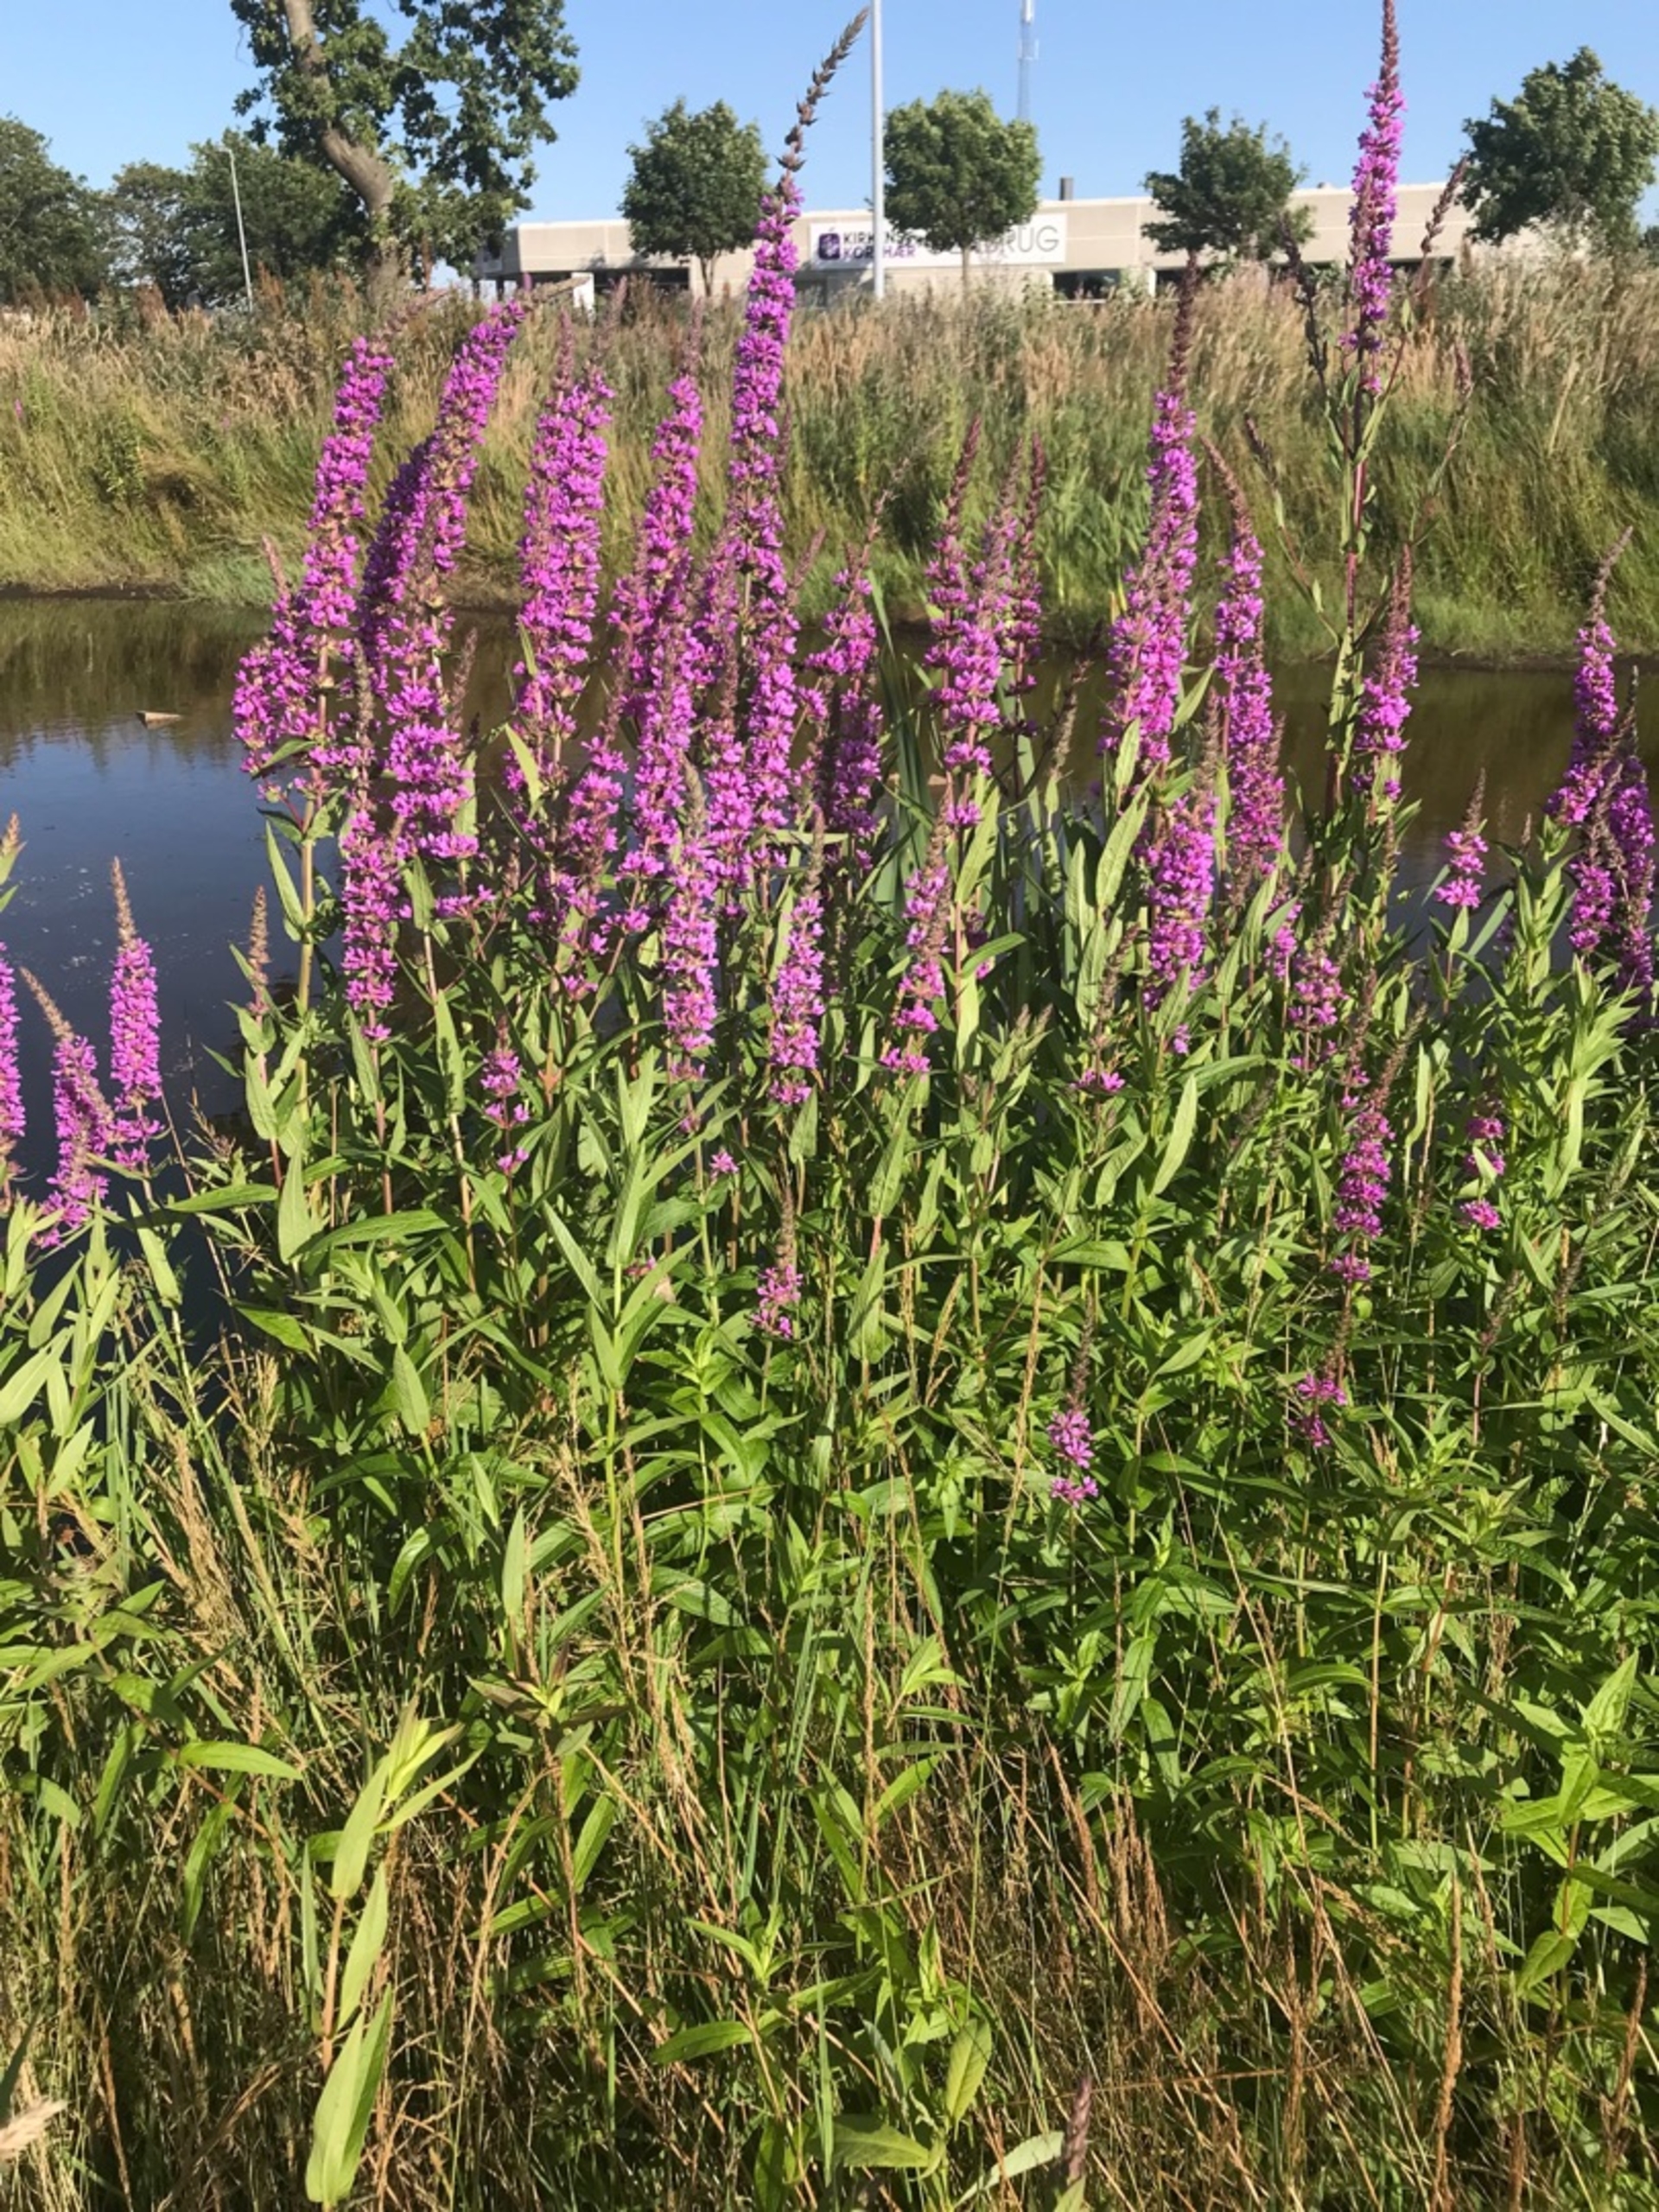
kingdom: Plantae
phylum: Tracheophyta
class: Magnoliopsida
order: Myrtales
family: Lythraceae
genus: Lythrum
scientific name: Lythrum salicaria
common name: Kattehale
